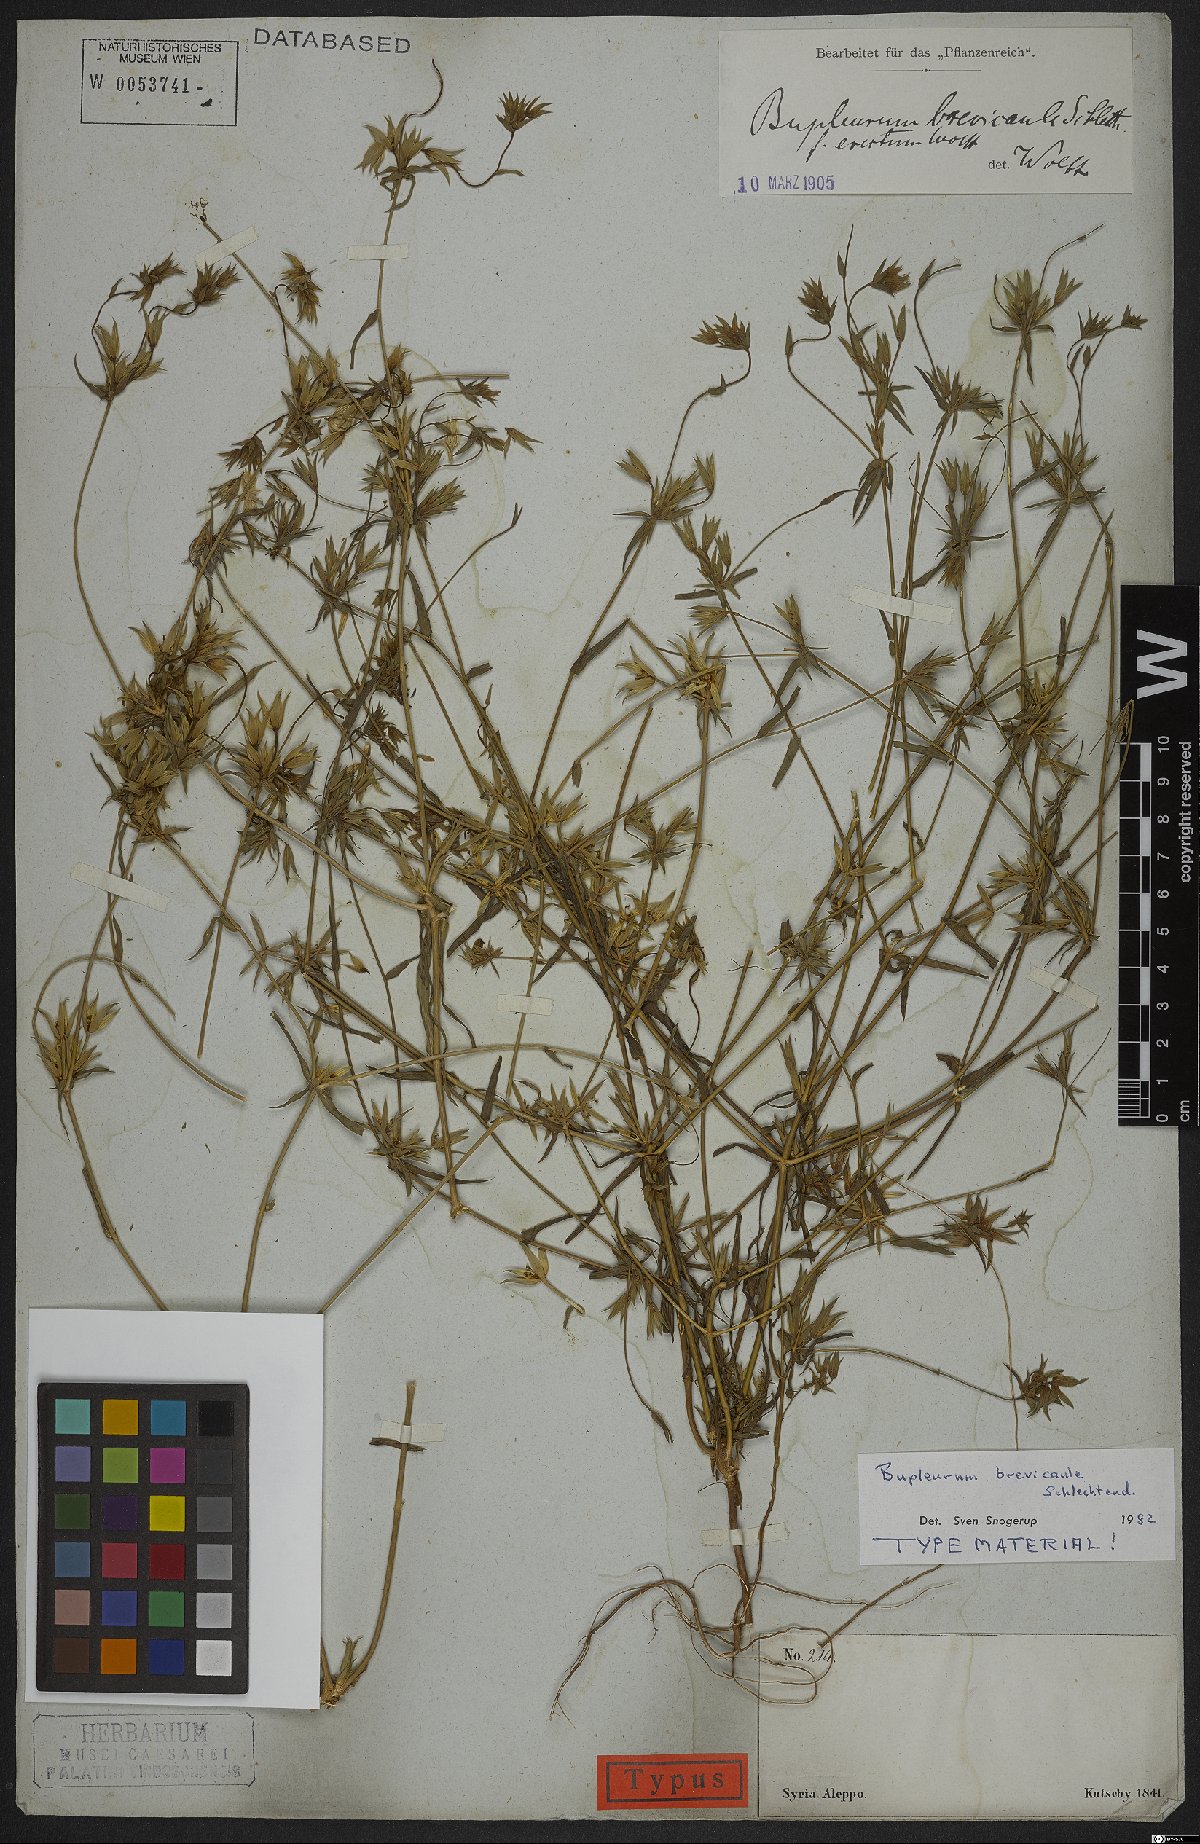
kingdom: Plantae
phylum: Tracheophyta
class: Magnoliopsida
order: Apiales
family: Apiaceae
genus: Bupleurum
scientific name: Bupleurum brevicaule
